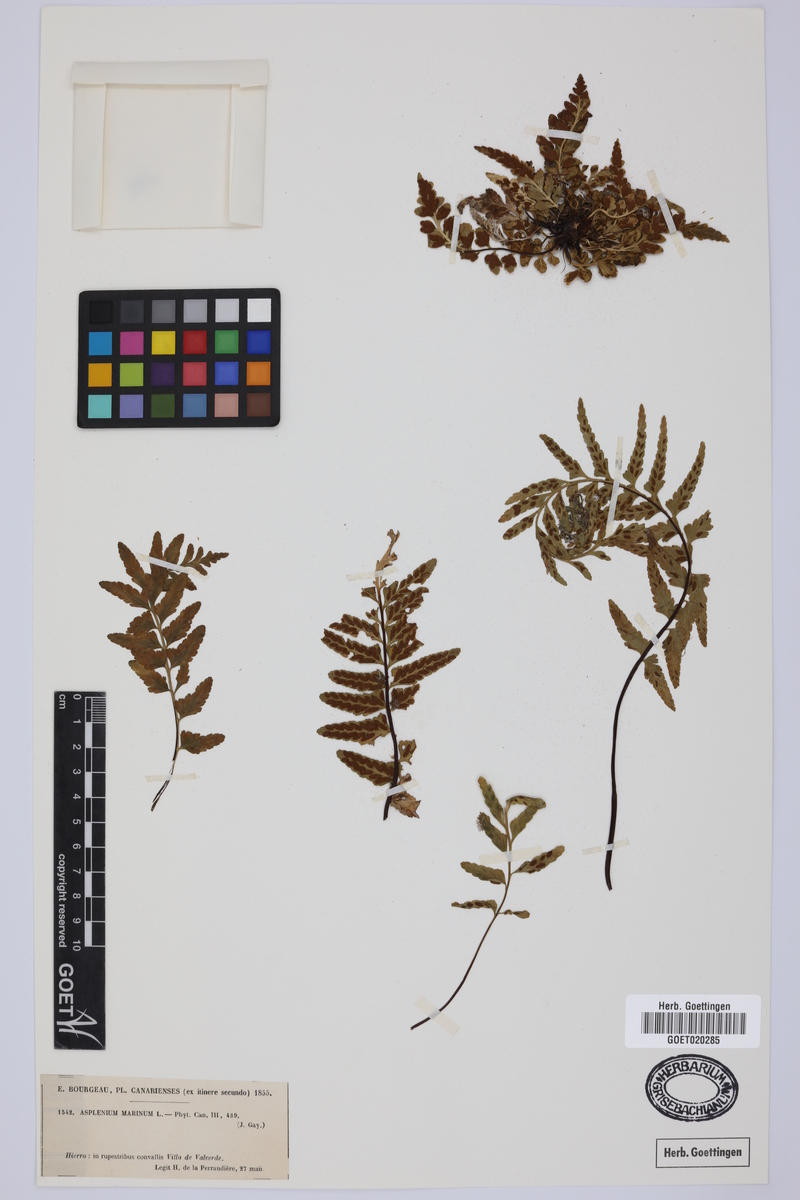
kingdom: Plantae
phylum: Tracheophyta
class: Polypodiopsida
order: Polypodiales
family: Aspleniaceae
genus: Asplenium
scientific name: Asplenium marinum
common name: Sea spleenwort
